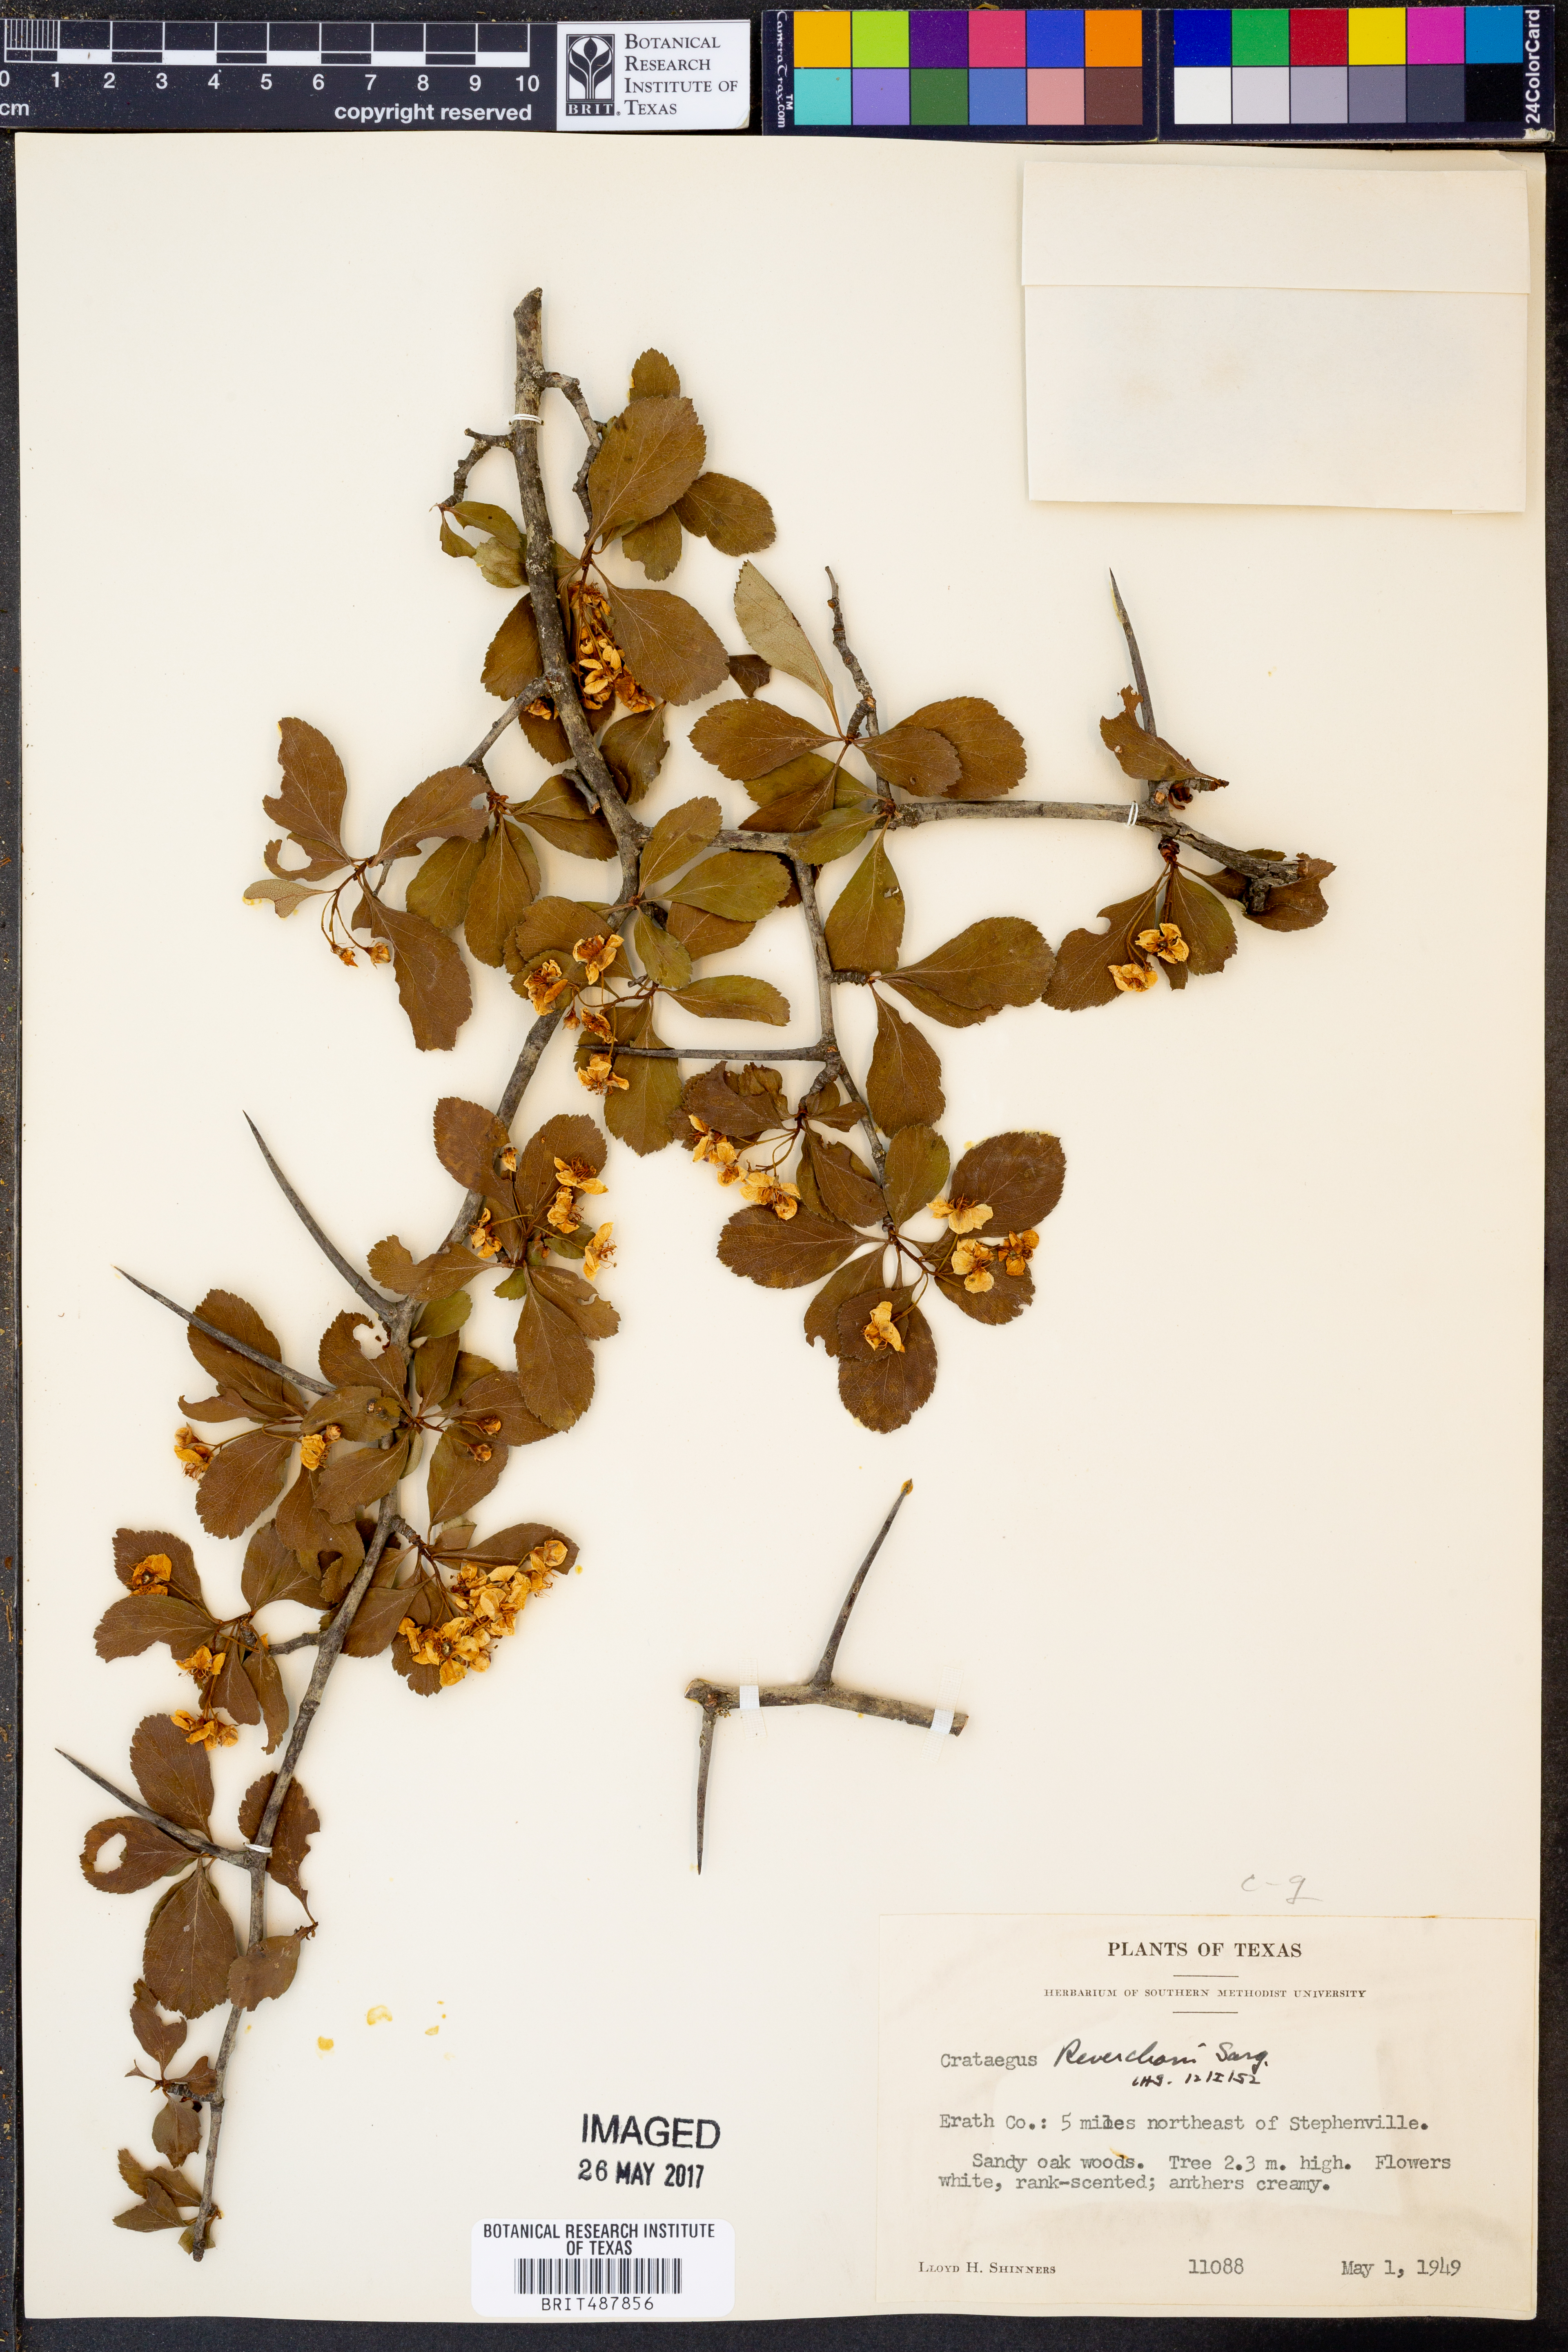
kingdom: Plantae
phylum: Tracheophyta
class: Magnoliopsida
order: Rosales
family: Rosaceae
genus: Crataegus
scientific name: Crataegus reverchonii
